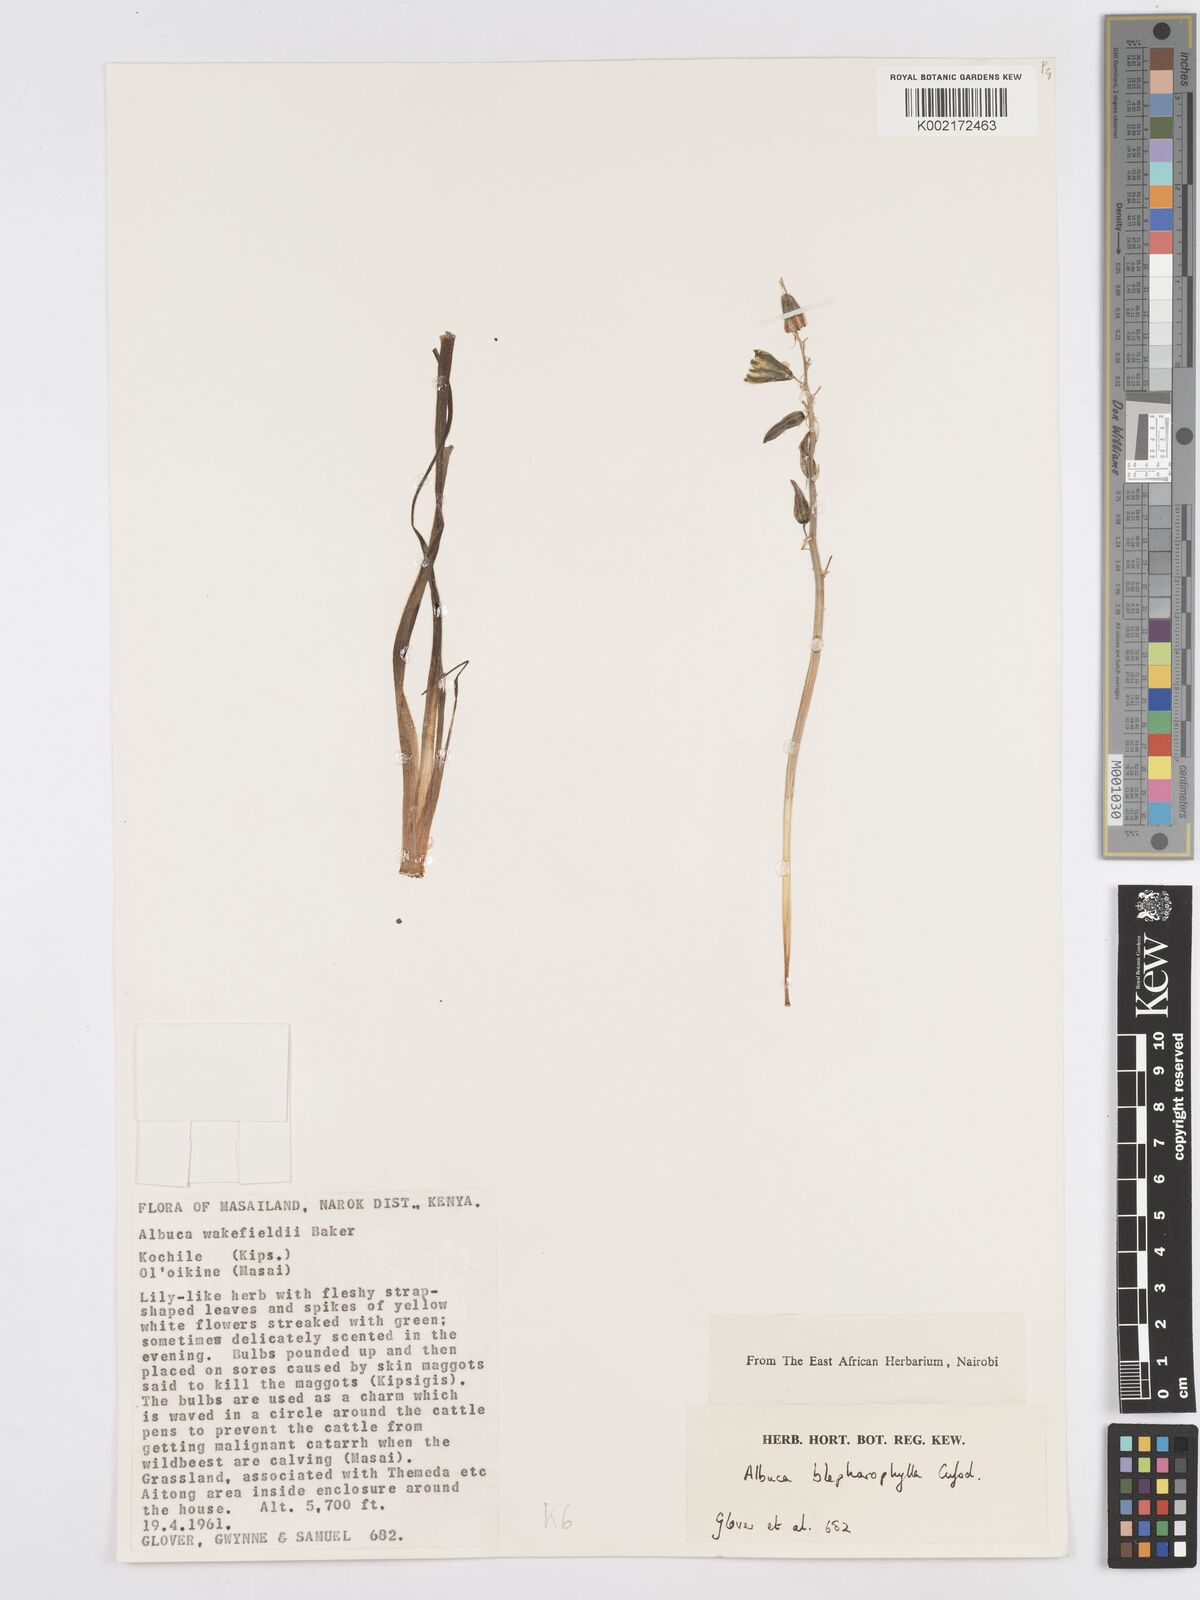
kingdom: Plantae
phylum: Tracheophyta
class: Liliopsida
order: Asparagales
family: Asparagaceae
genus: Albuca
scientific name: Albuca abyssinica
